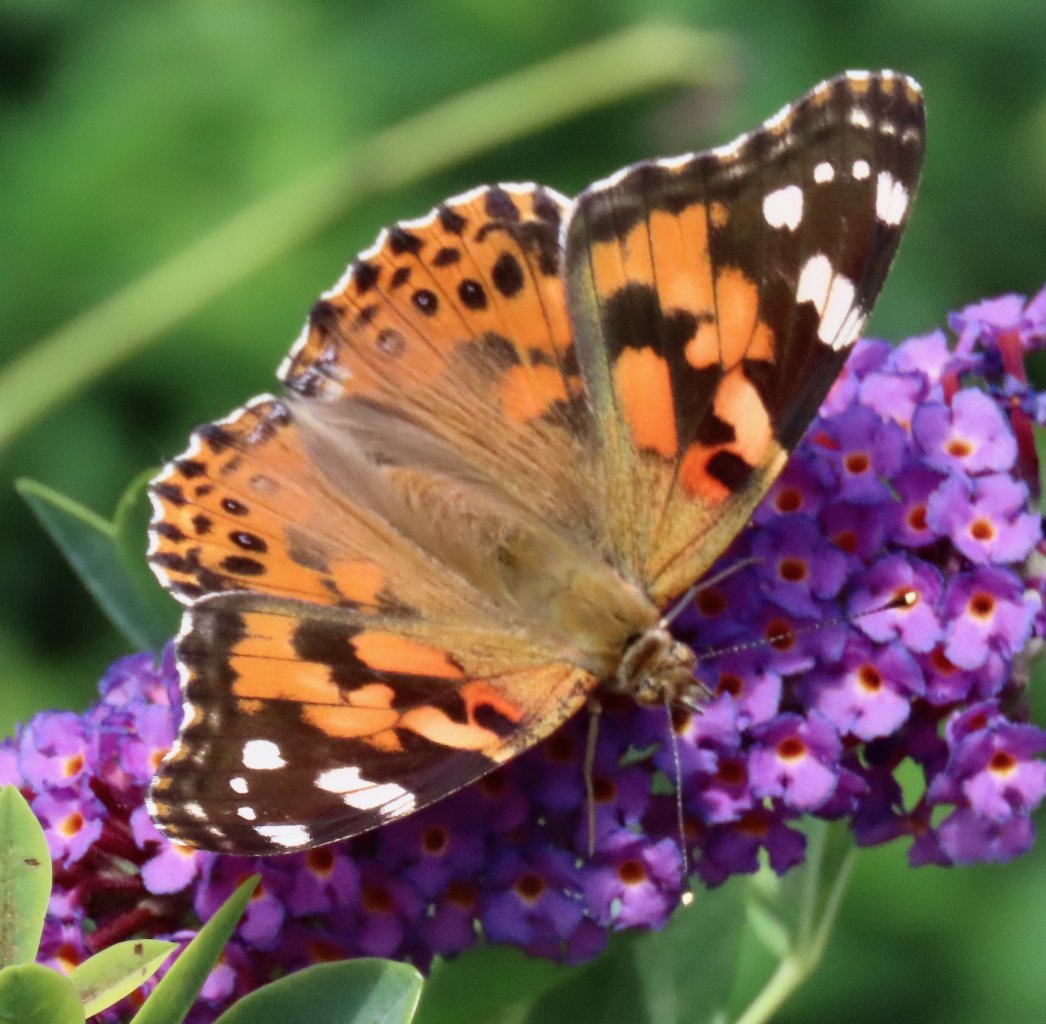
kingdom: Animalia
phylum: Arthropoda
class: Insecta
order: Lepidoptera
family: Nymphalidae
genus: Vanessa
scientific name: Vanessa cardui
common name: Painted Lady
